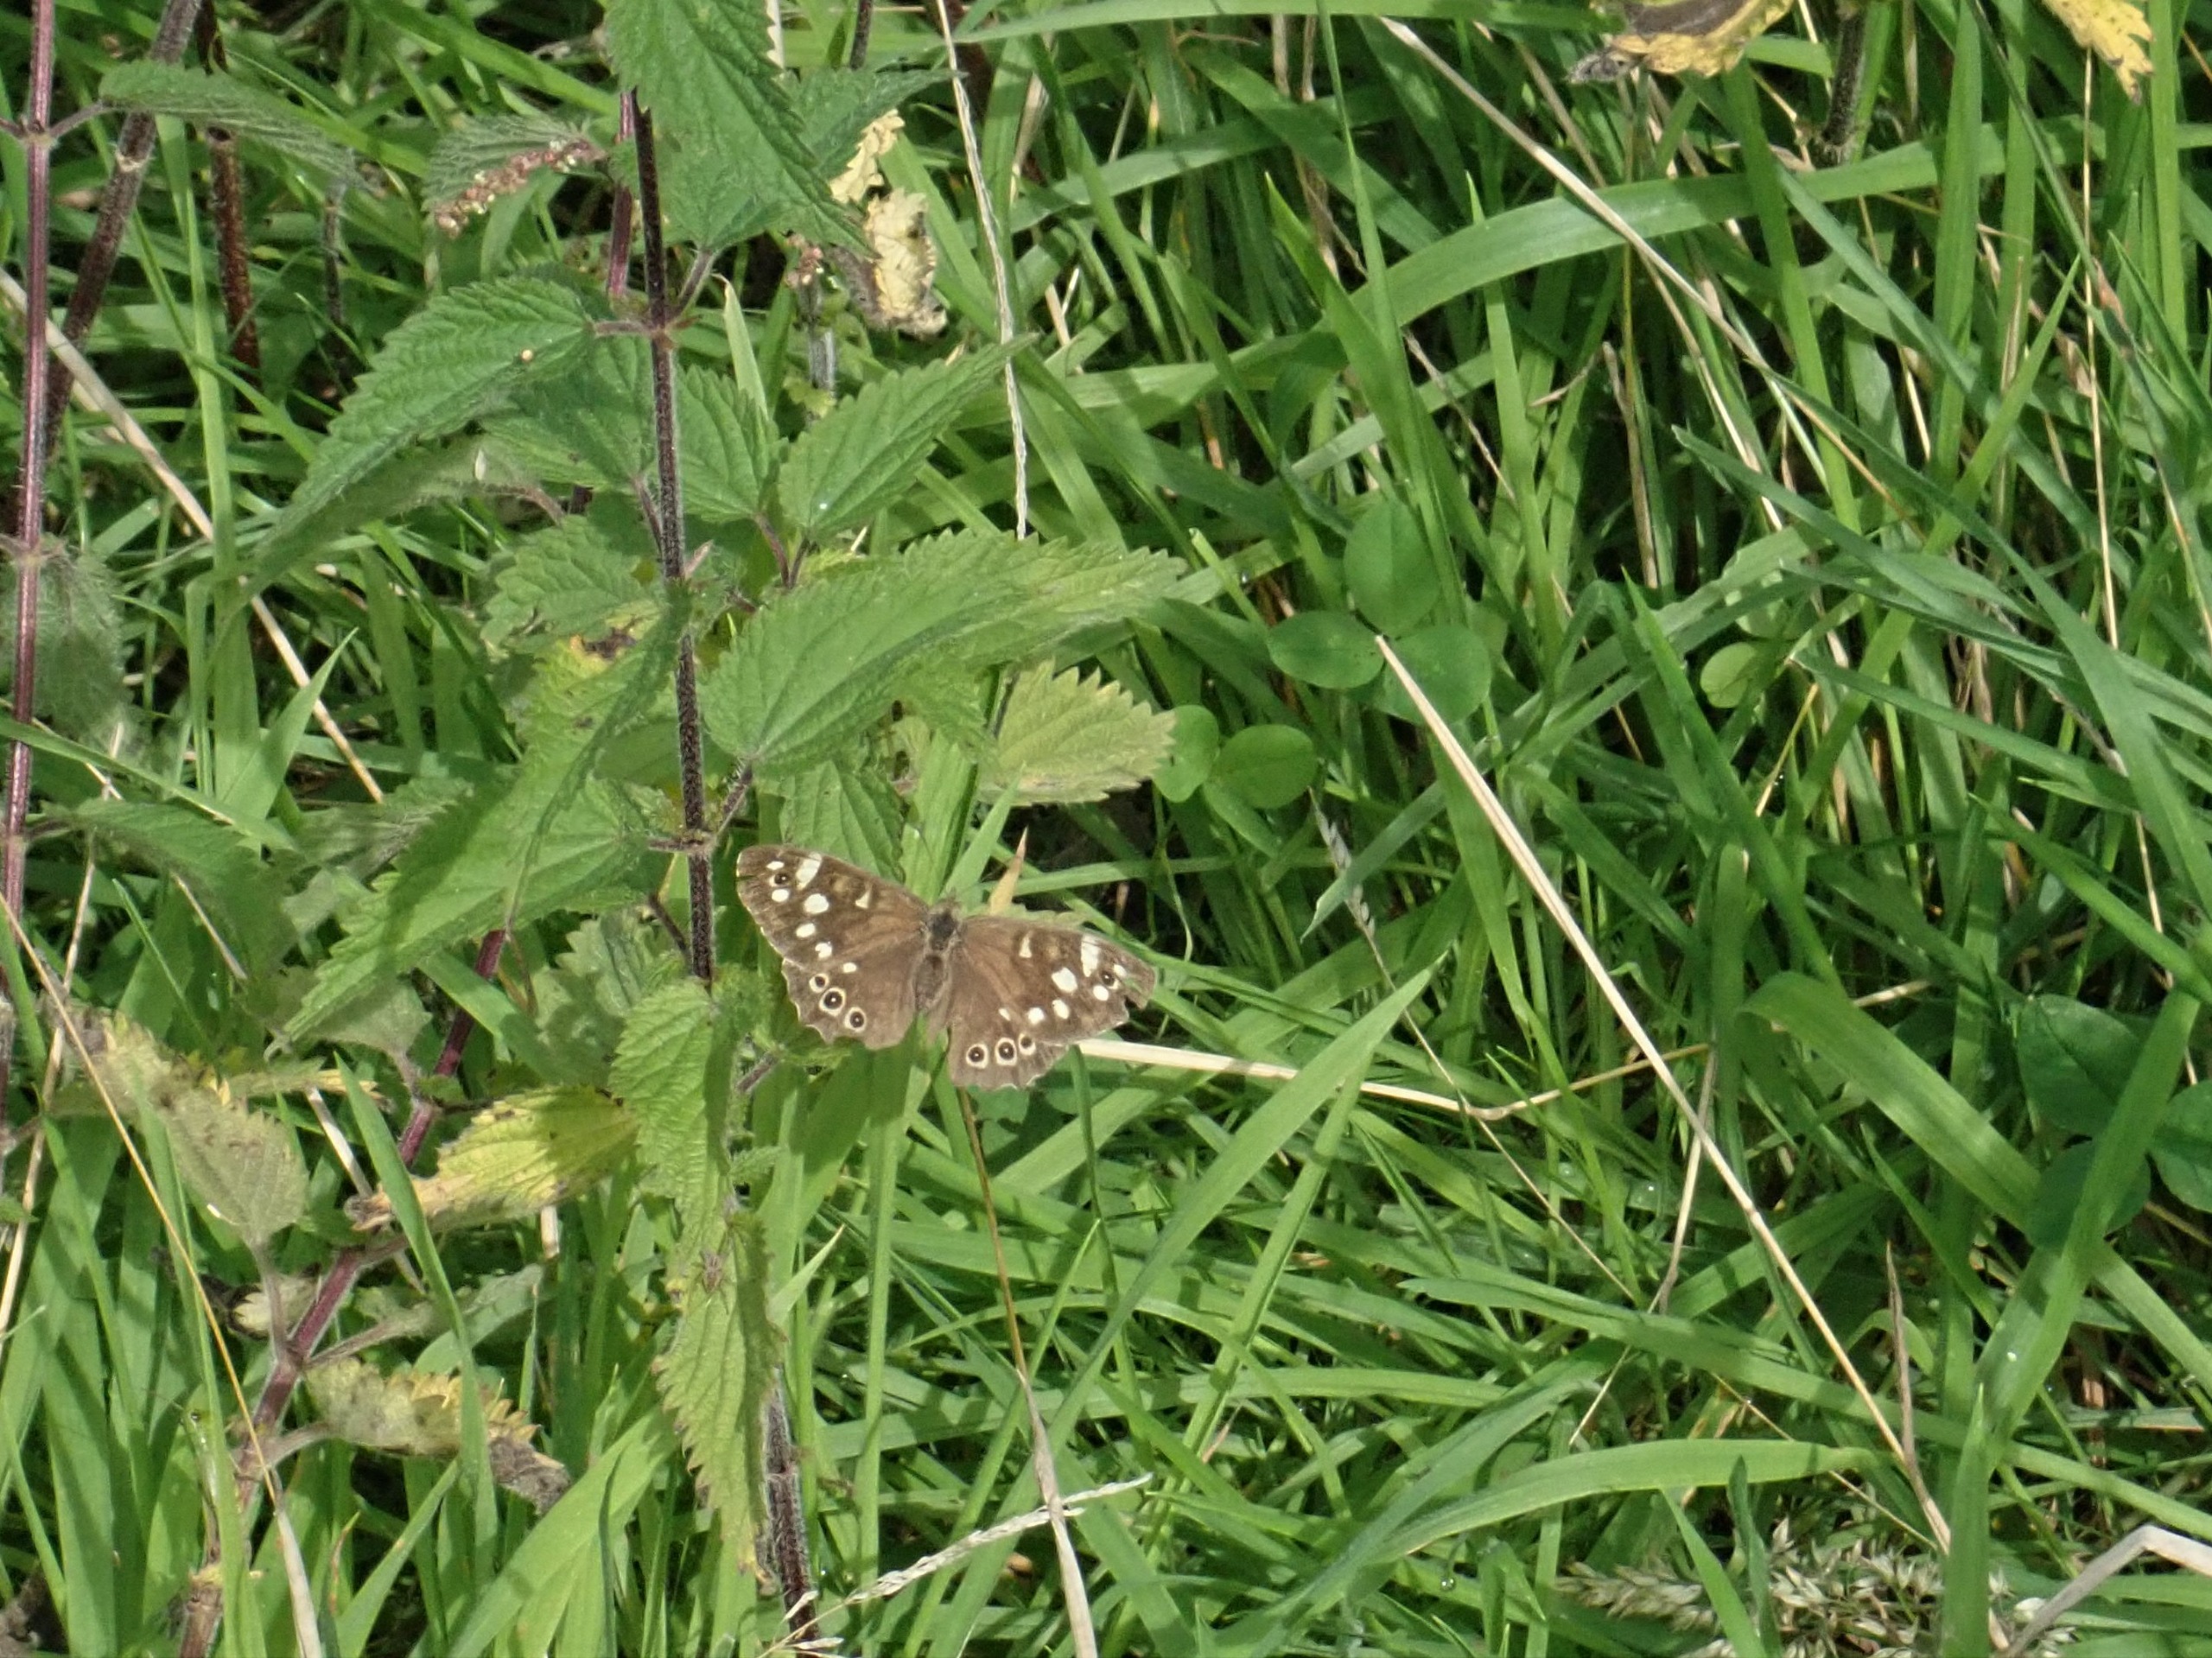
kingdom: Animalia
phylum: Arthropoda
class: Insecta
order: Lepidoptera
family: Nymphalidae
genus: Pararge
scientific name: Pararge aegeria
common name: Skovrandøje
